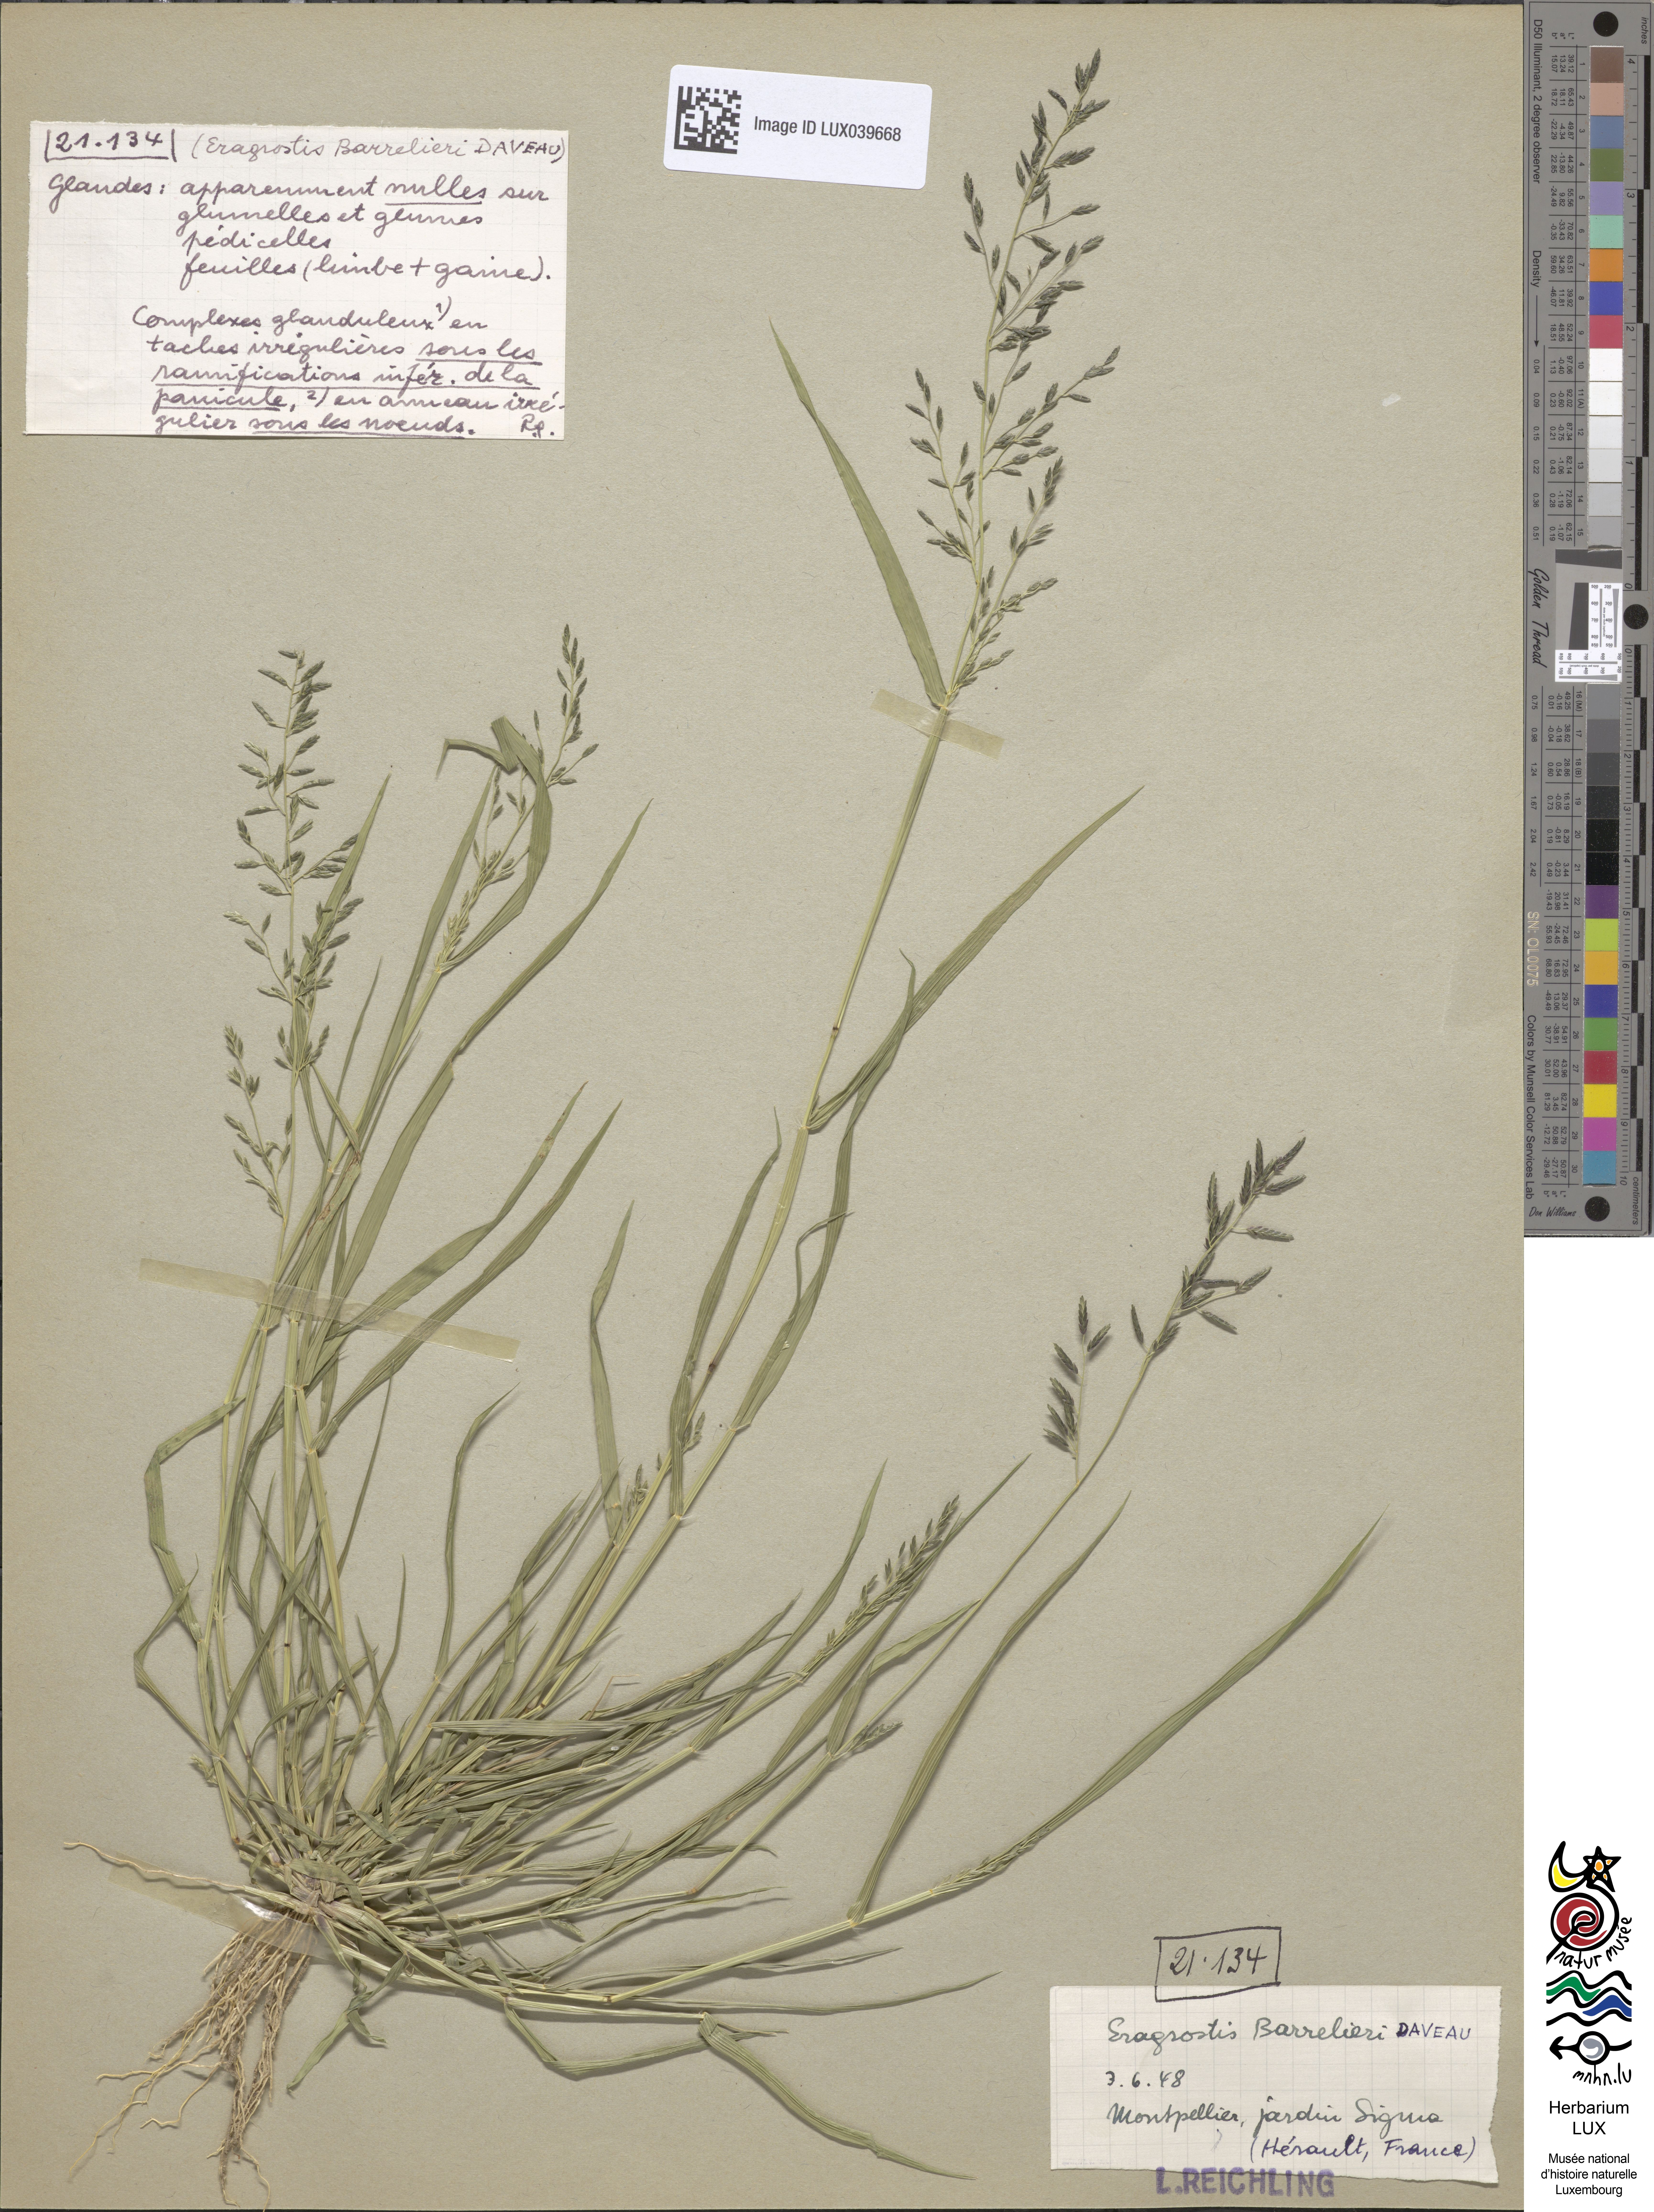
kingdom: Plantae
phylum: Tracheophyta
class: Liliopsida
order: Poales
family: Poaceae
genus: Eragrostis
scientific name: Eragrostis barrelieri
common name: Mediterranean lovegrass
